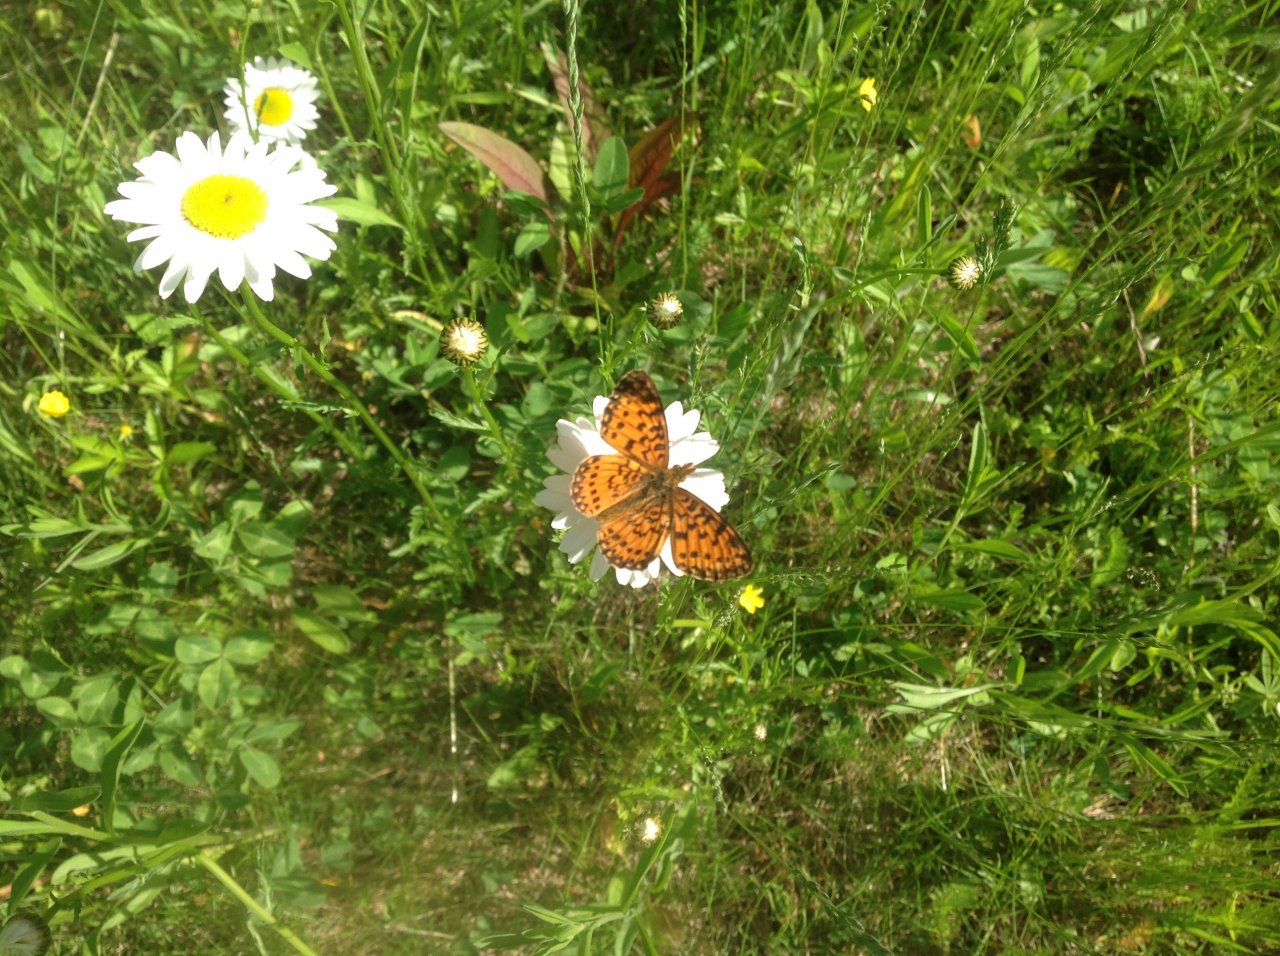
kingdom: Animalia
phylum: Arthropoda
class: Insecta
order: Lepidoptera
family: Nymphalidae
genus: Boloria
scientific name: Boloria selene
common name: Silver-bordered Fritillary
